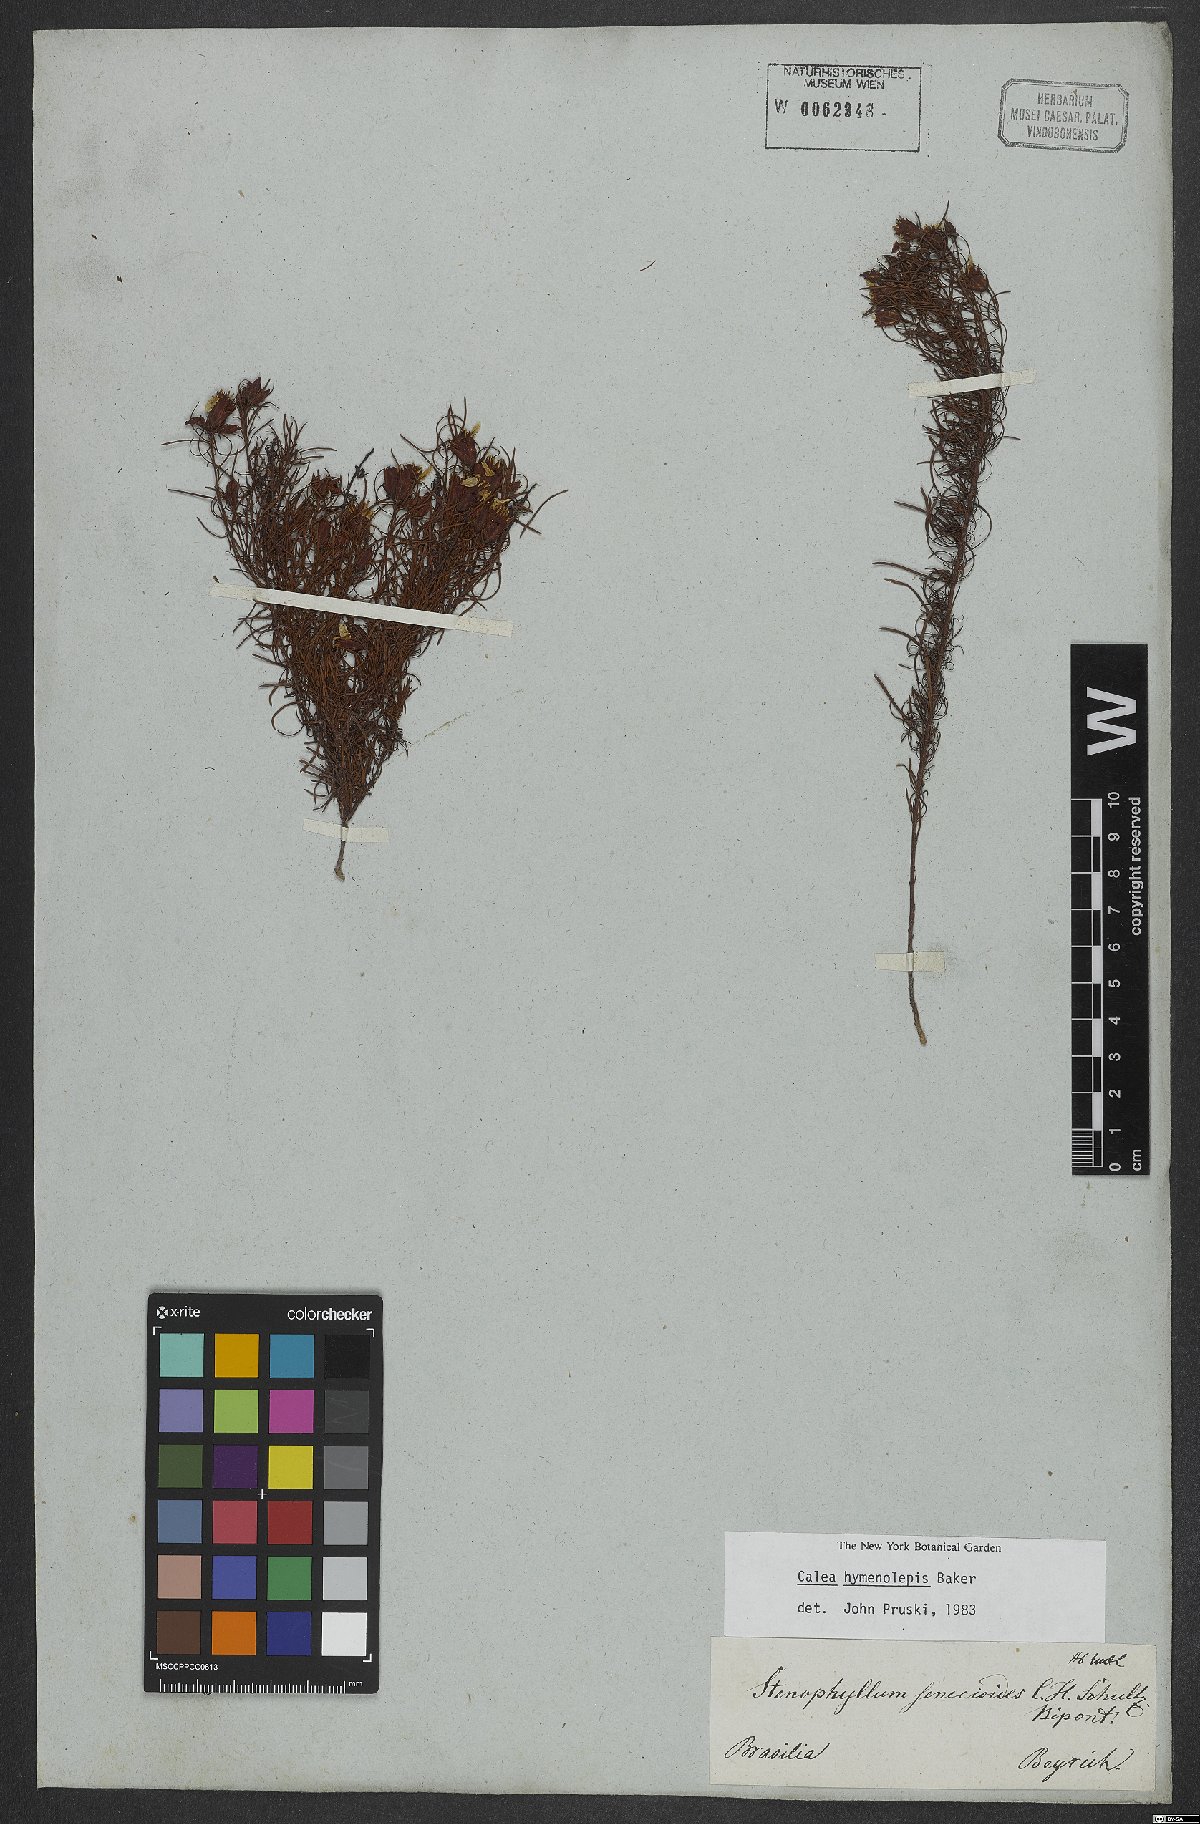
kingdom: Plantae
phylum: Tracheophyta
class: Magnoliopsida
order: Asterales
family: Asteraceae
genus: Calea
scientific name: Calea hymenolepis
